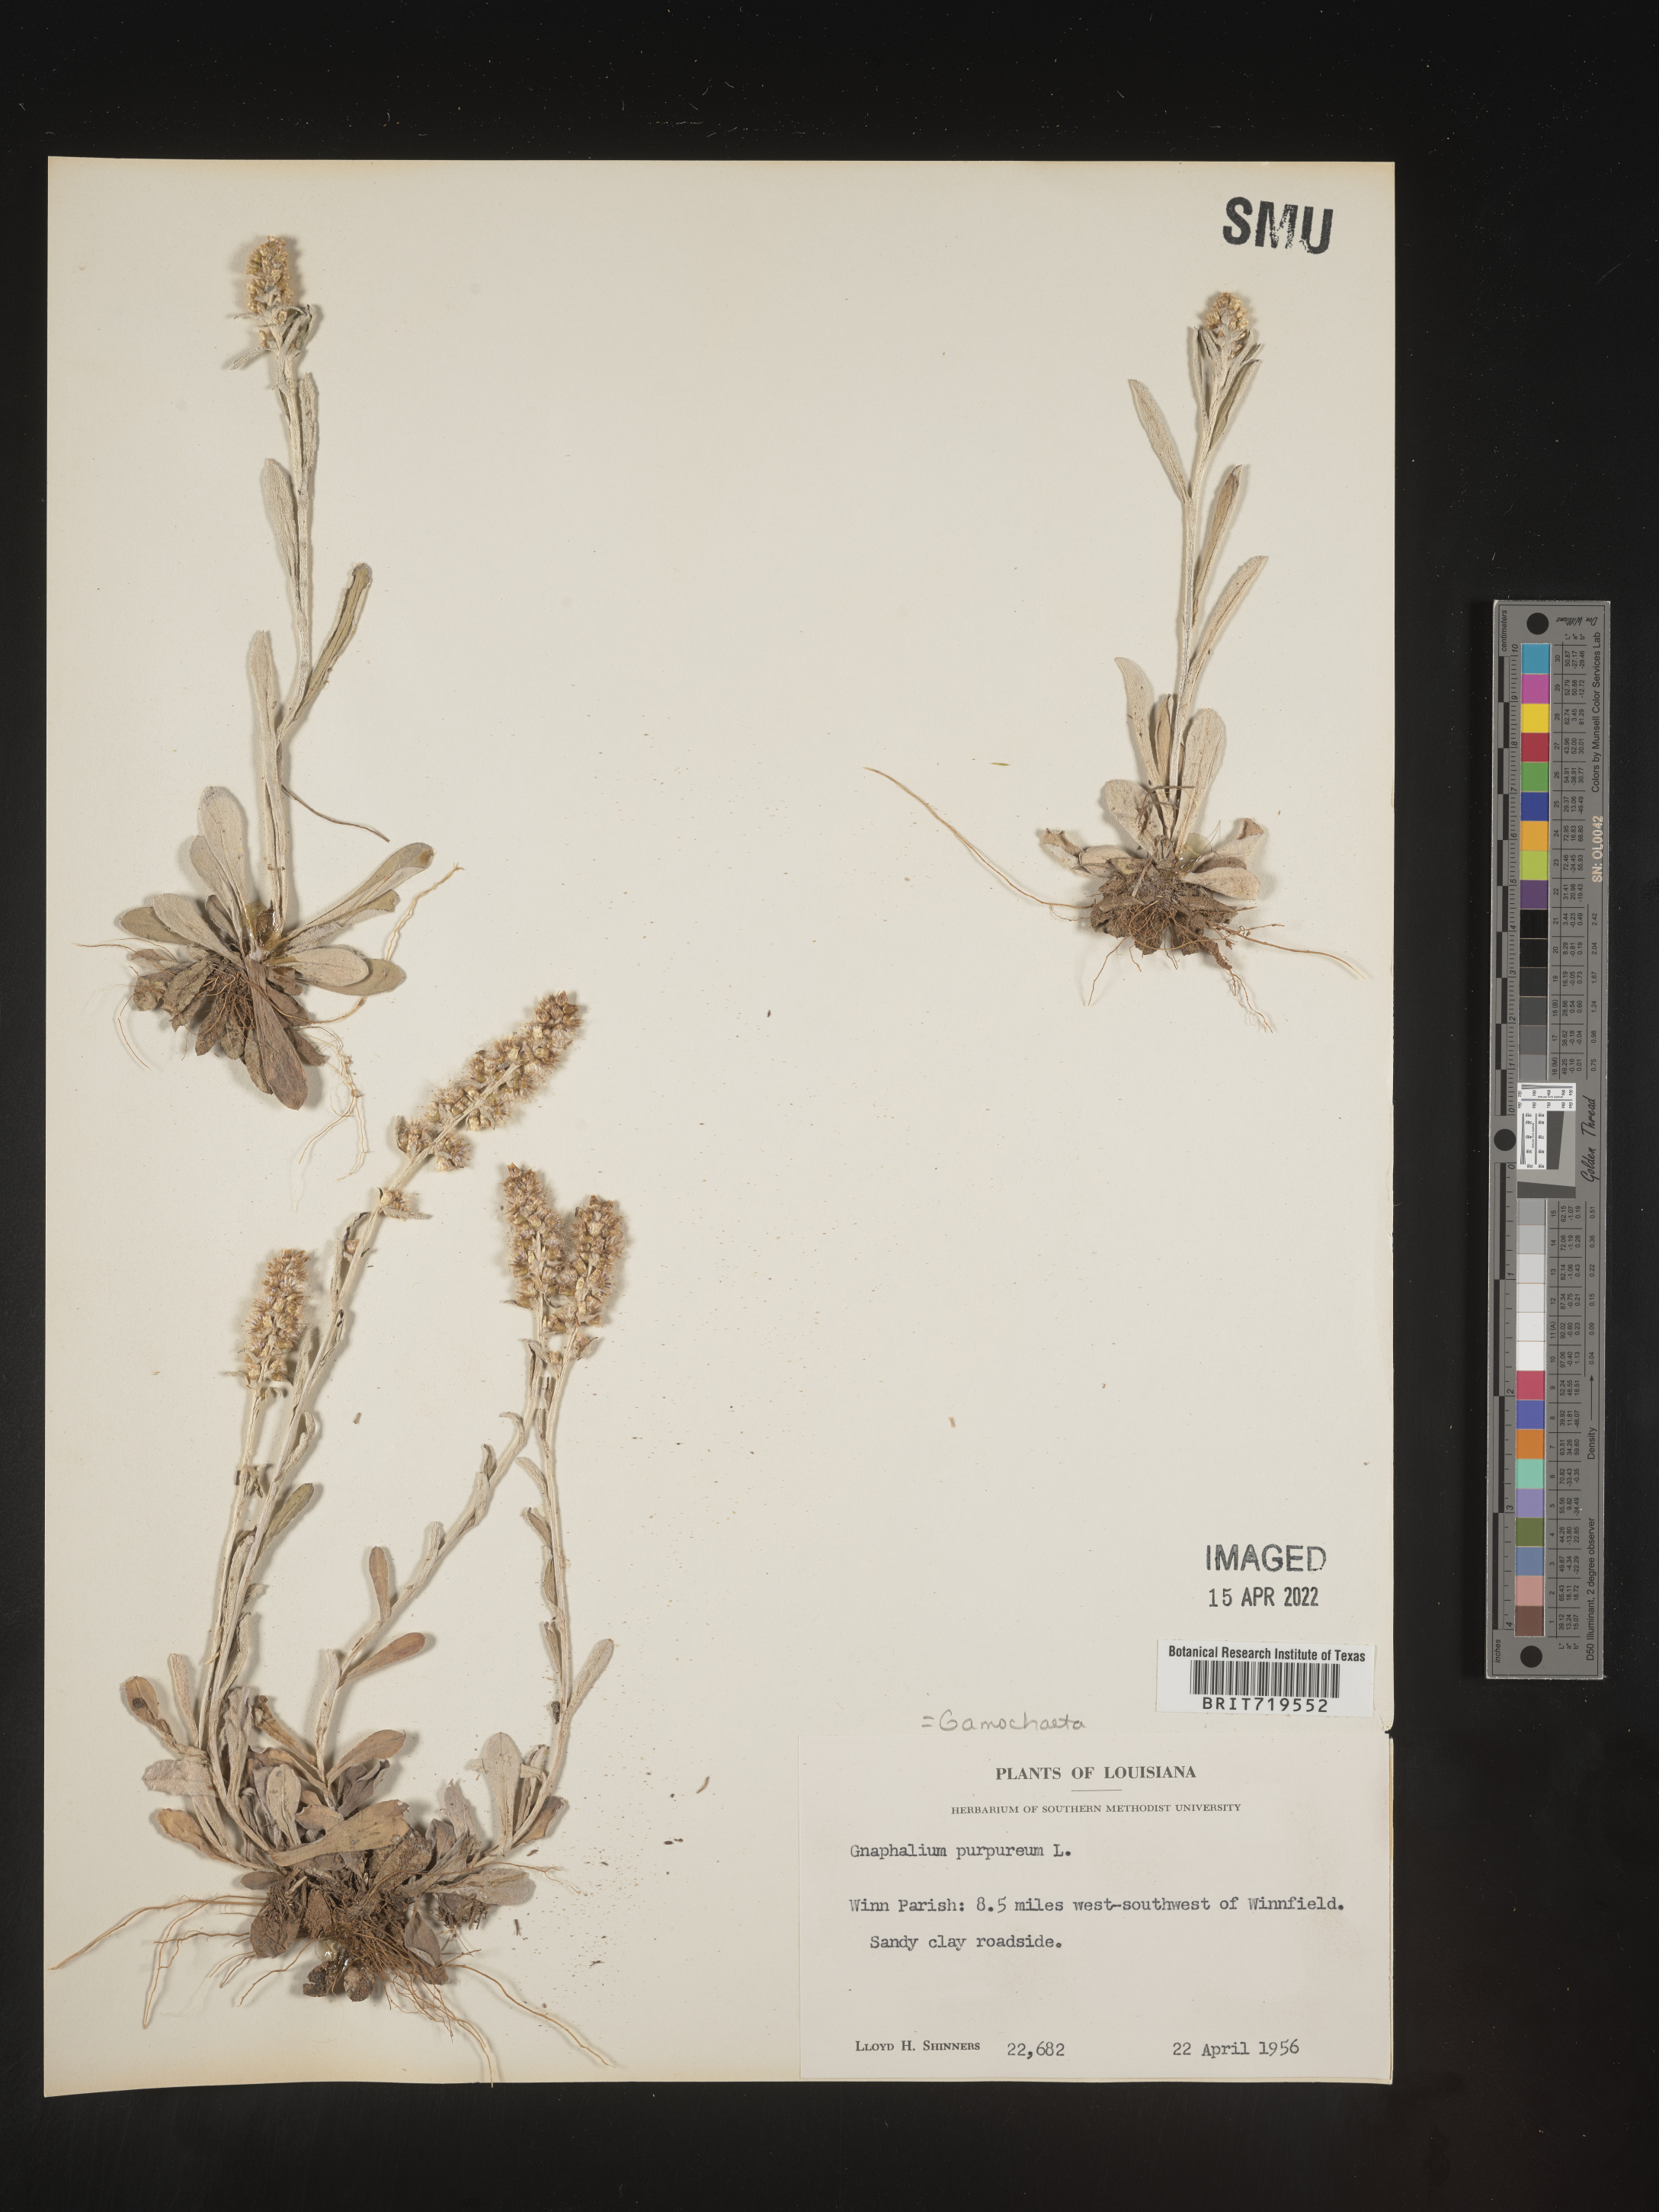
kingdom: Plantae
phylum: Tracheophyta
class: Magnoliopsida
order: Asterales
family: Asteraceae
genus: Gamochaeta
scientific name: Gamochaeta argyrinea
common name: Silvery cudweed
